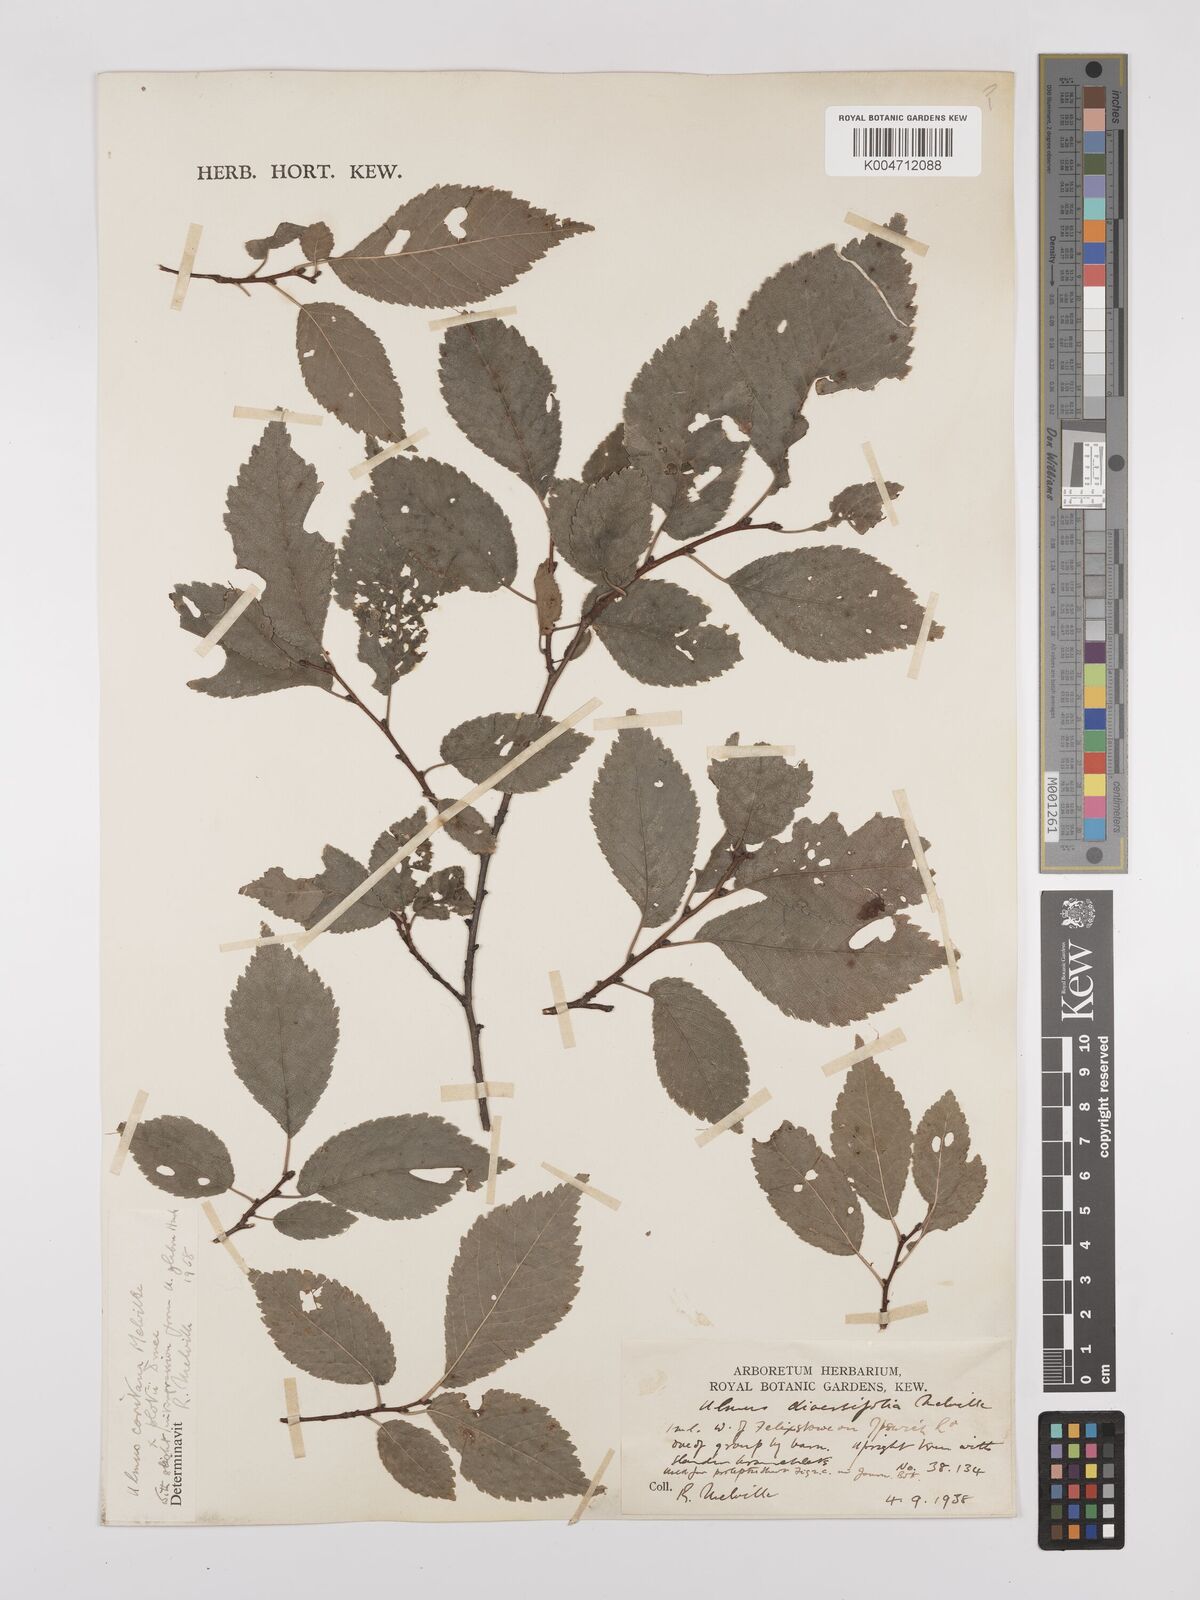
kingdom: Plantae
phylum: Tracheophyta
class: Magnoliopsida
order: Rosales
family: Ulmaceae
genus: Ulmus
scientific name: Ulmus minor
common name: Small-leaved elm
